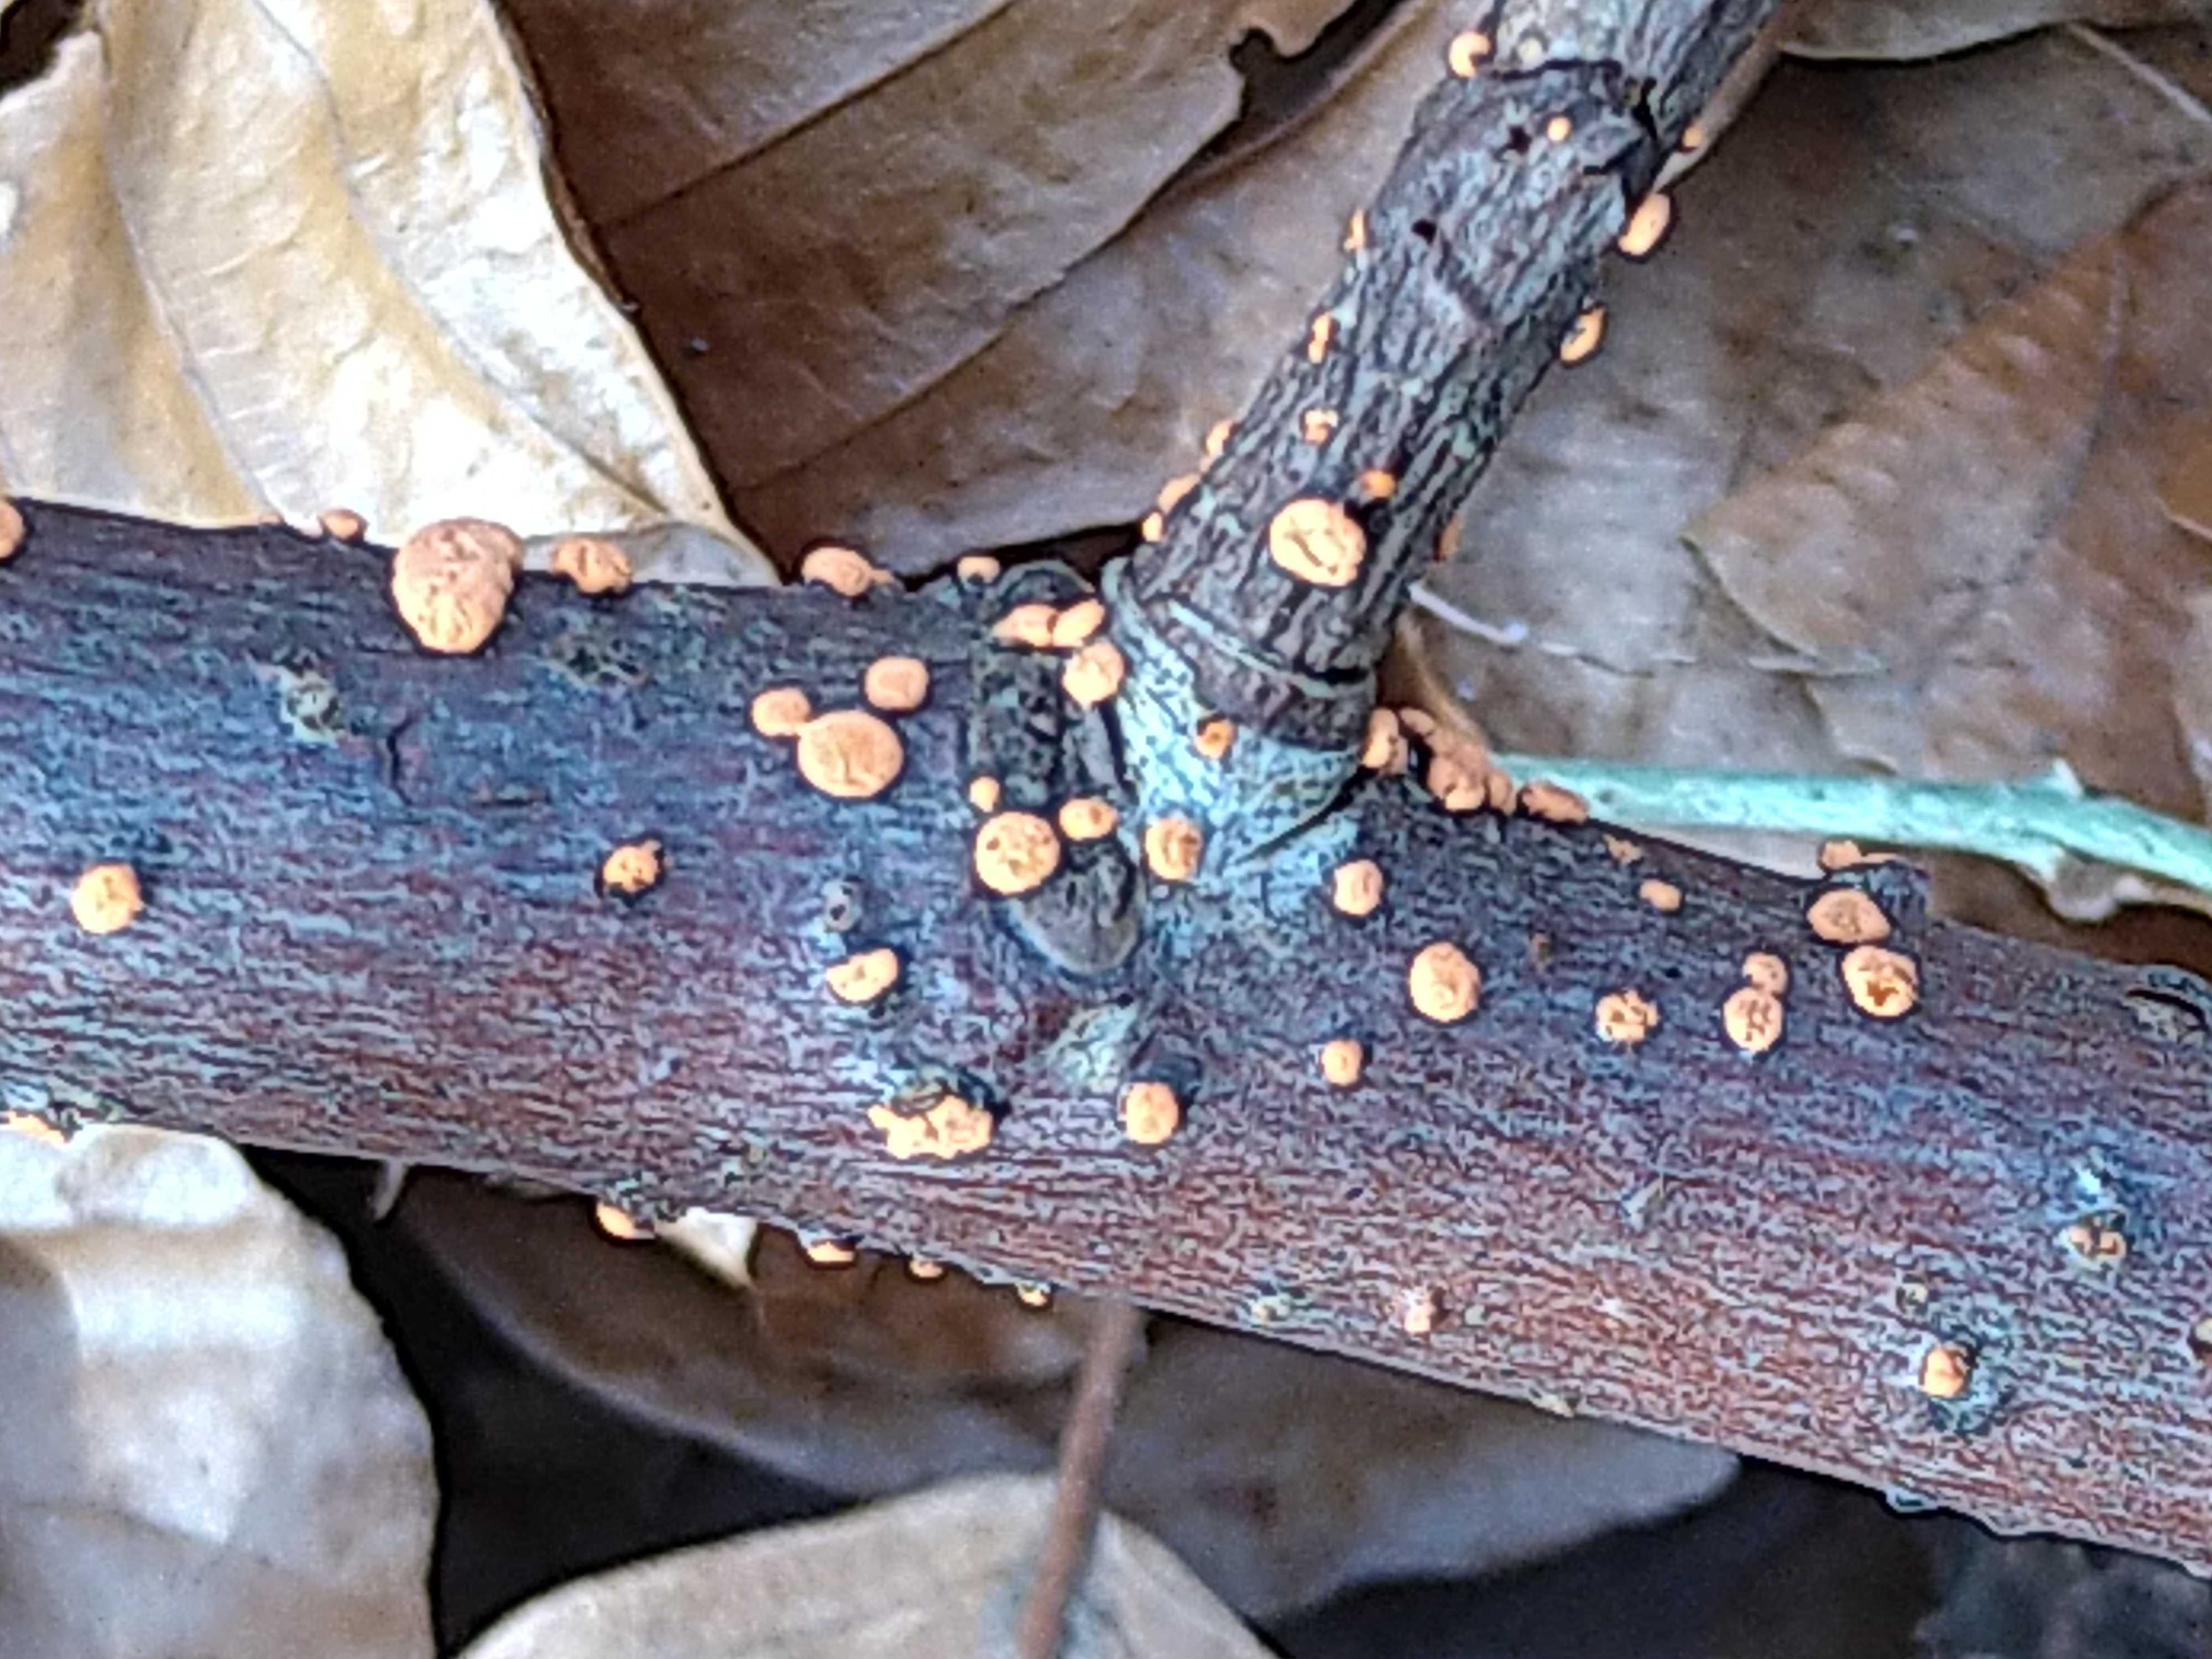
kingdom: Fungi
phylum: Ascomycota
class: Sordariomycetes
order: Hypocreales
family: Nectriaceae
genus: Nectria
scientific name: Nectria cinnabarina
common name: almindelig cinnobersvamp
